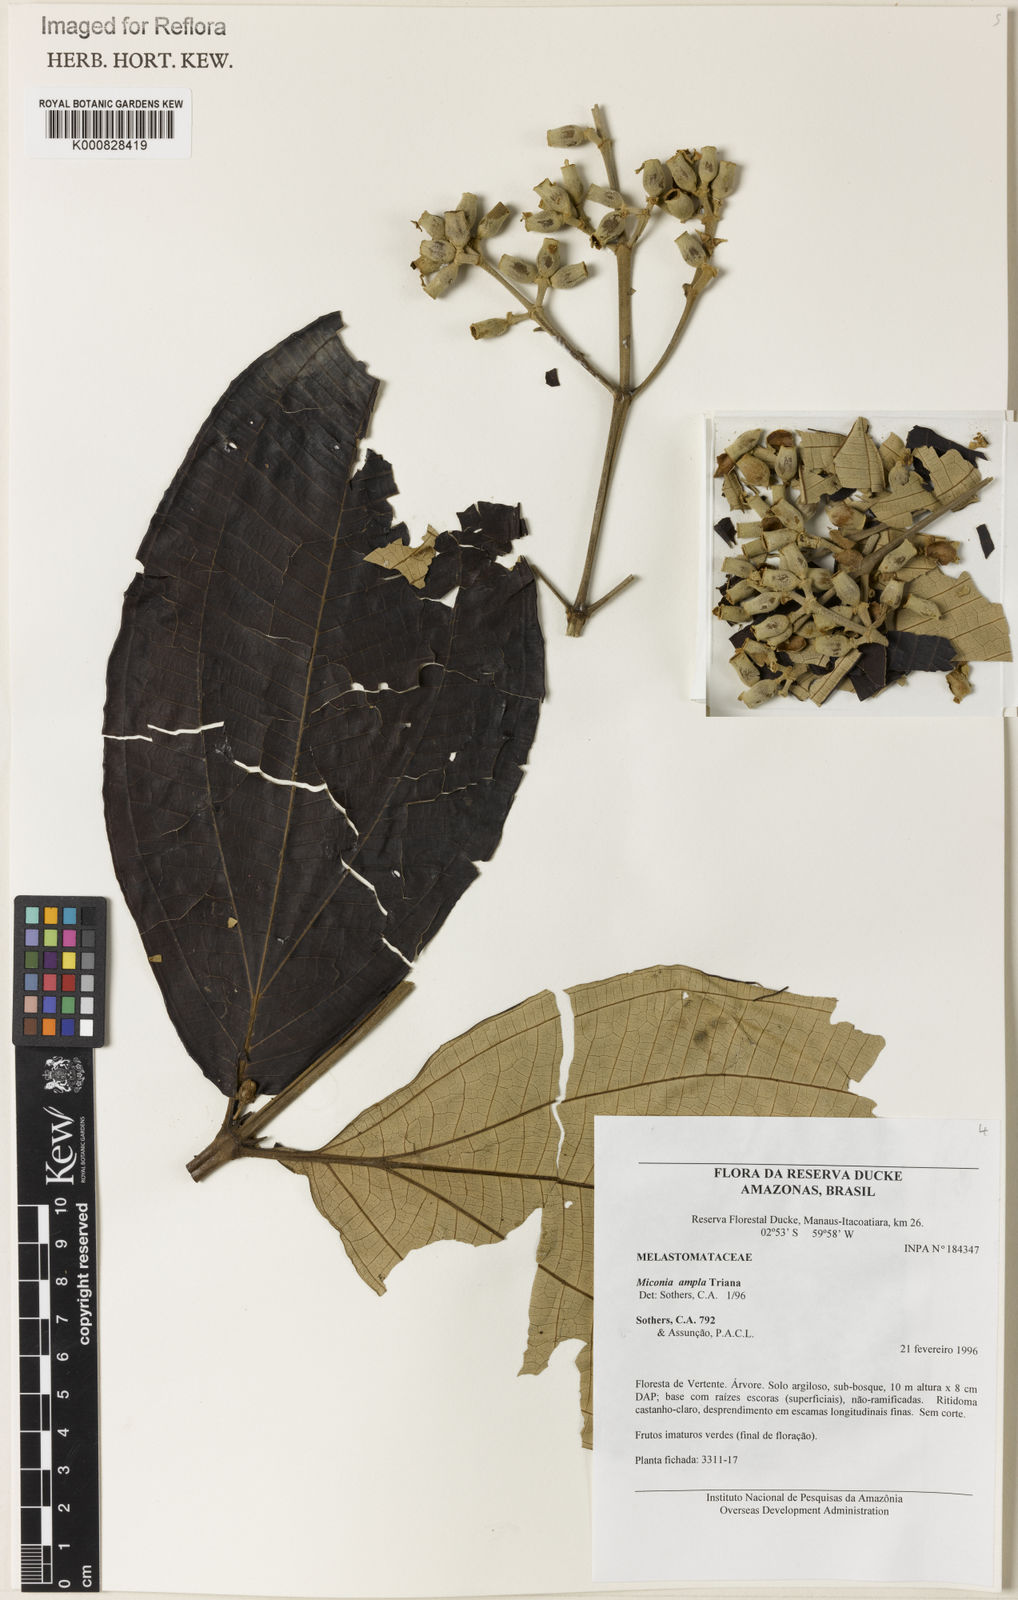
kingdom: Plantae
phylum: Tracheophyta
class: Magnoliopsida
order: Myrtales
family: Melastomataceae
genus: Miconia
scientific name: Miconia ampla
